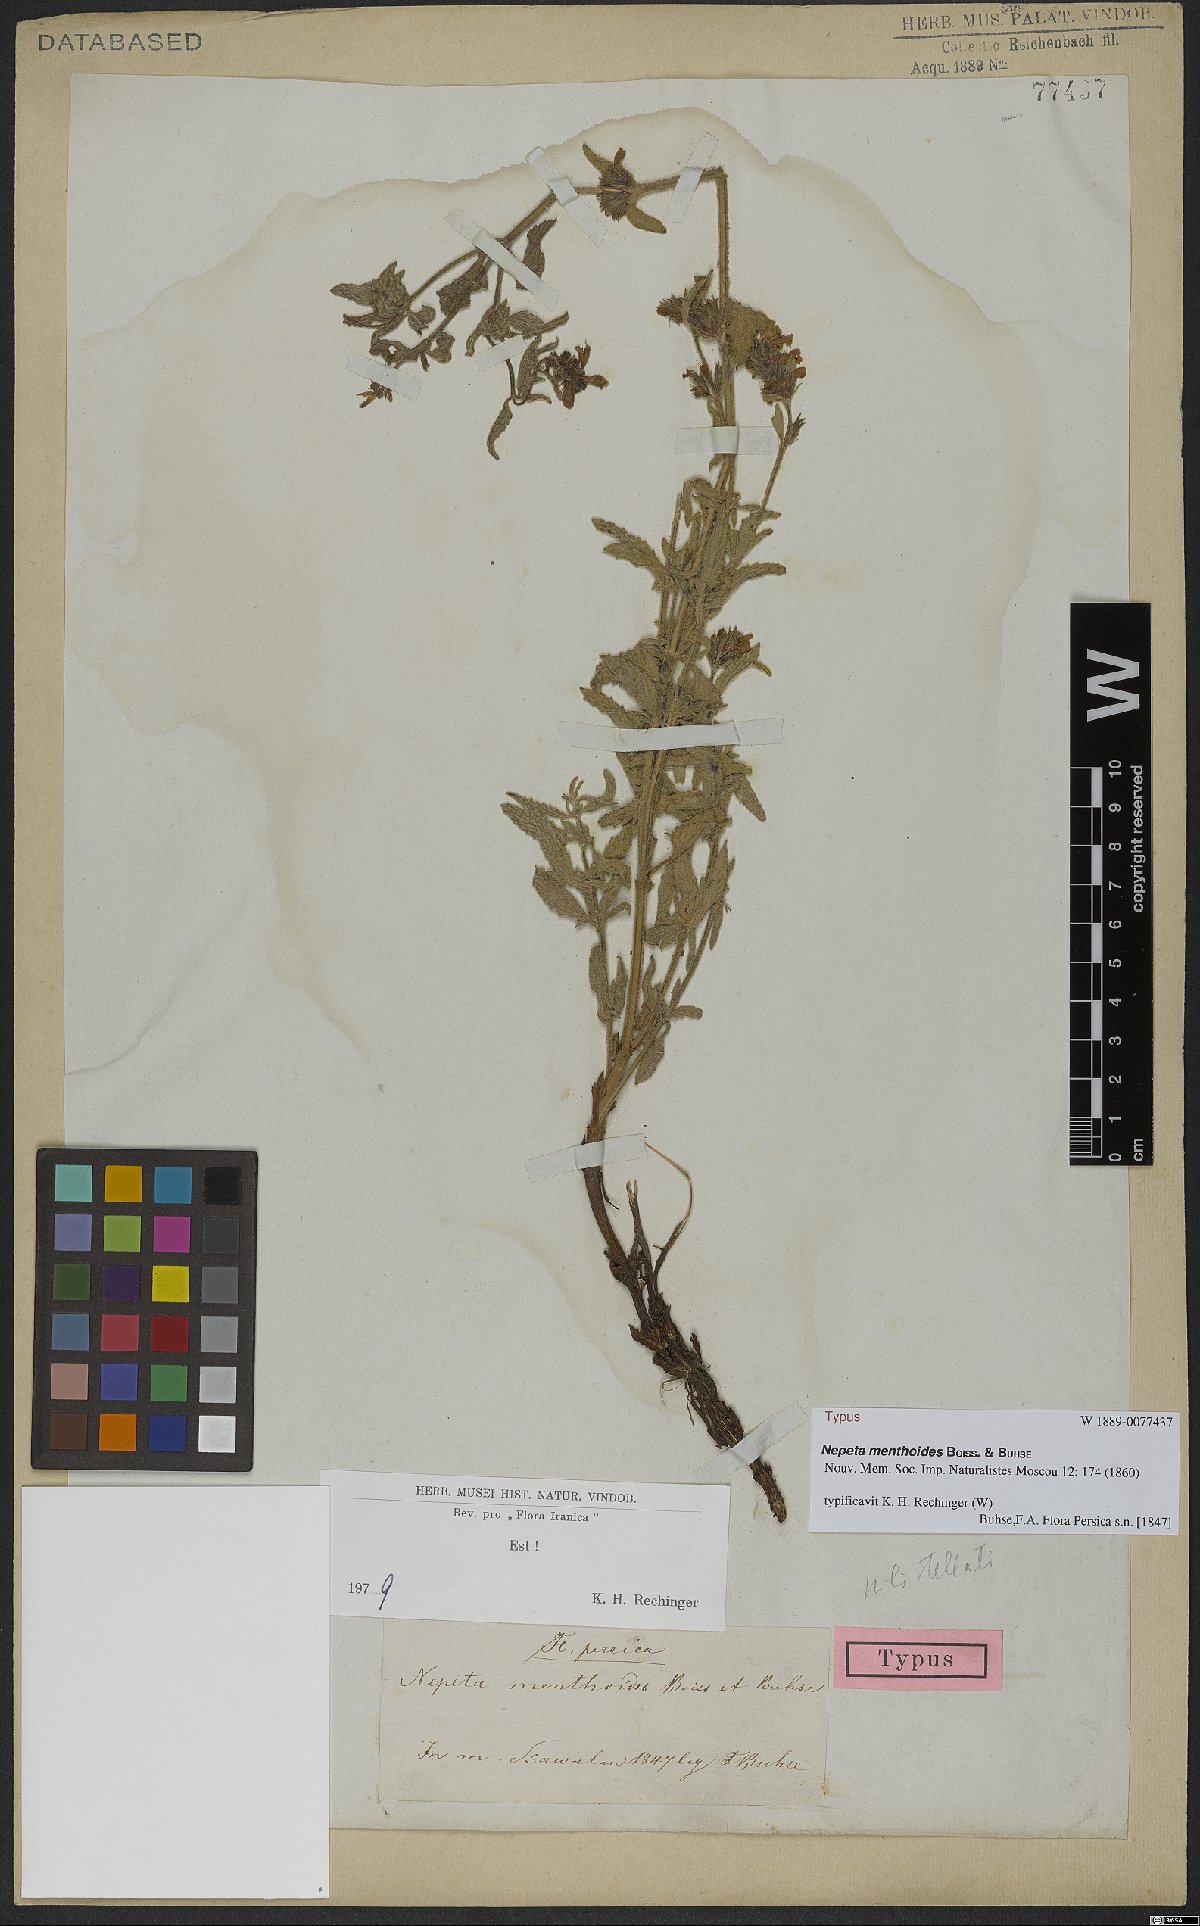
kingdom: Plantae
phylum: Tracheophyta
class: Magnoliopsida
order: Lamiales
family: Lamiaceae
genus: Nepeta
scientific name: Nepeta menthoides
